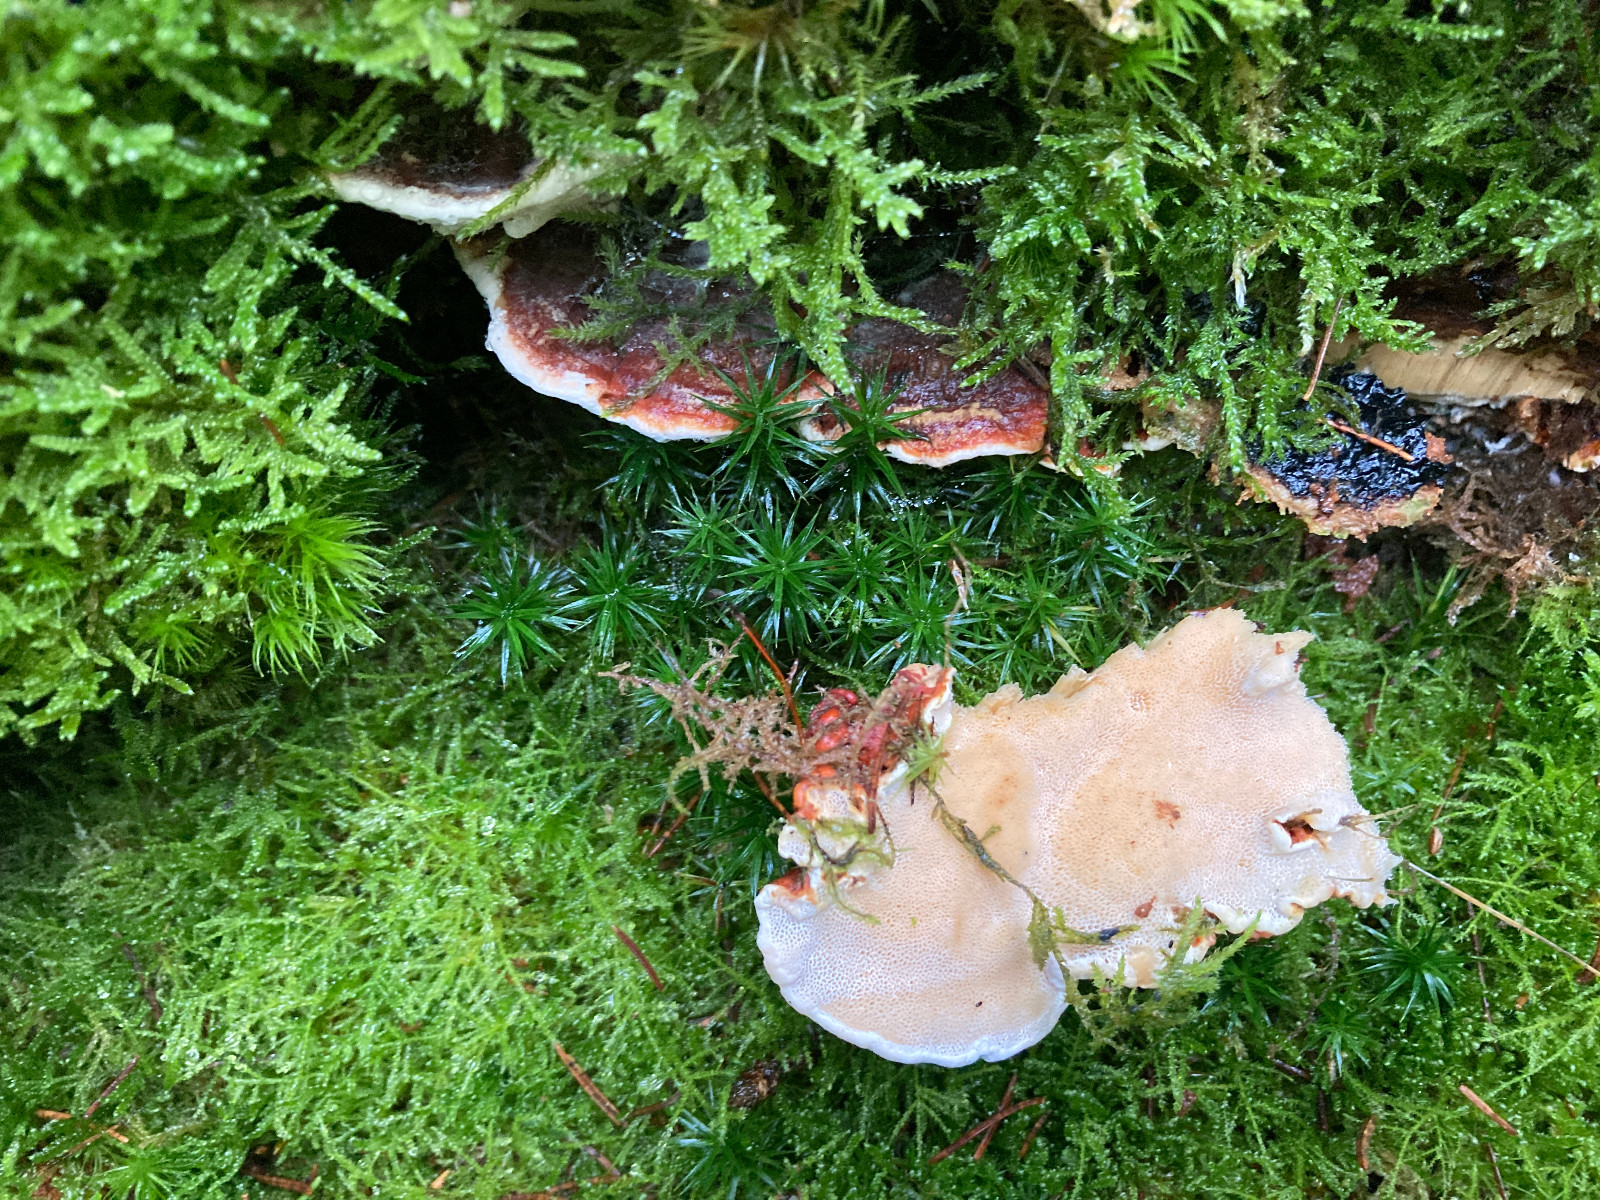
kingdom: Fungi
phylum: Basidiomycota
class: Agaricomycetes
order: Russulales
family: Bondarzewiaceae
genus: Heterobasidion
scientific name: Heterobasidion annosum
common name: almindelig rodfordærver
